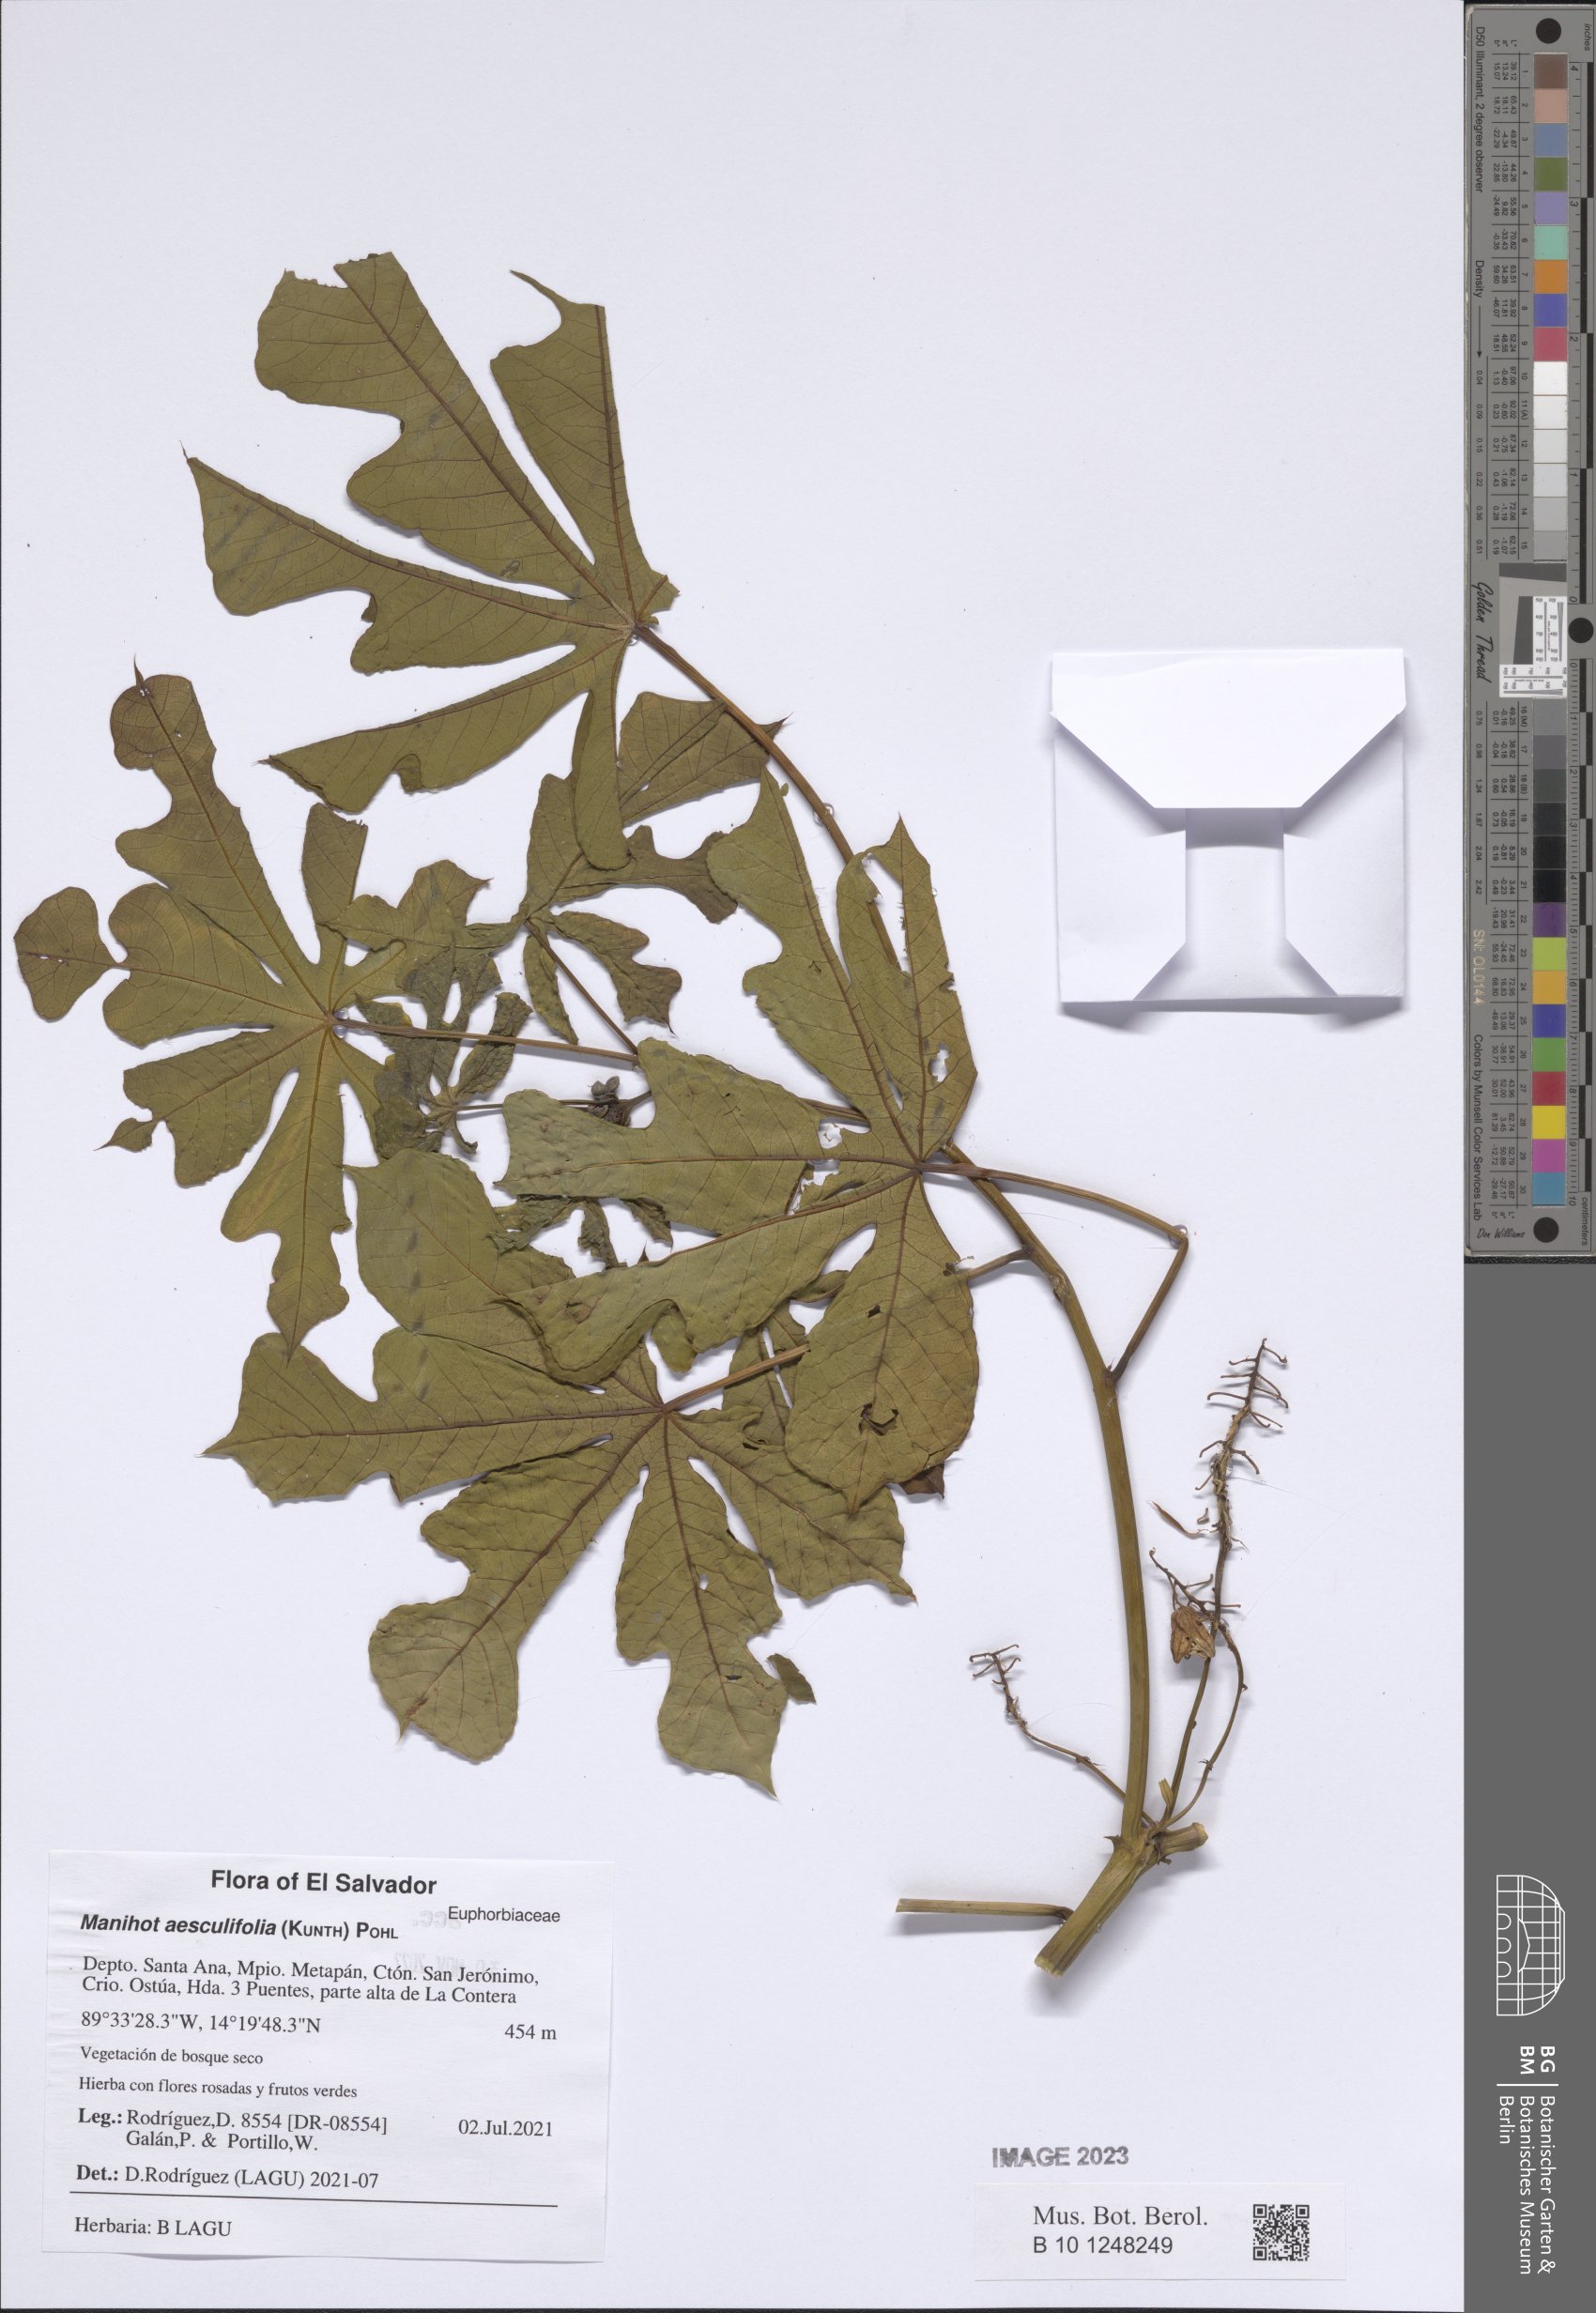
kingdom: Plantae
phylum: Tracheophyta
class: Magnoliopsida
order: Malpighiales
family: Euphorbiaceae
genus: Manihot
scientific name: Manihot aesculifolia
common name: Buckeye-leafed cassava
